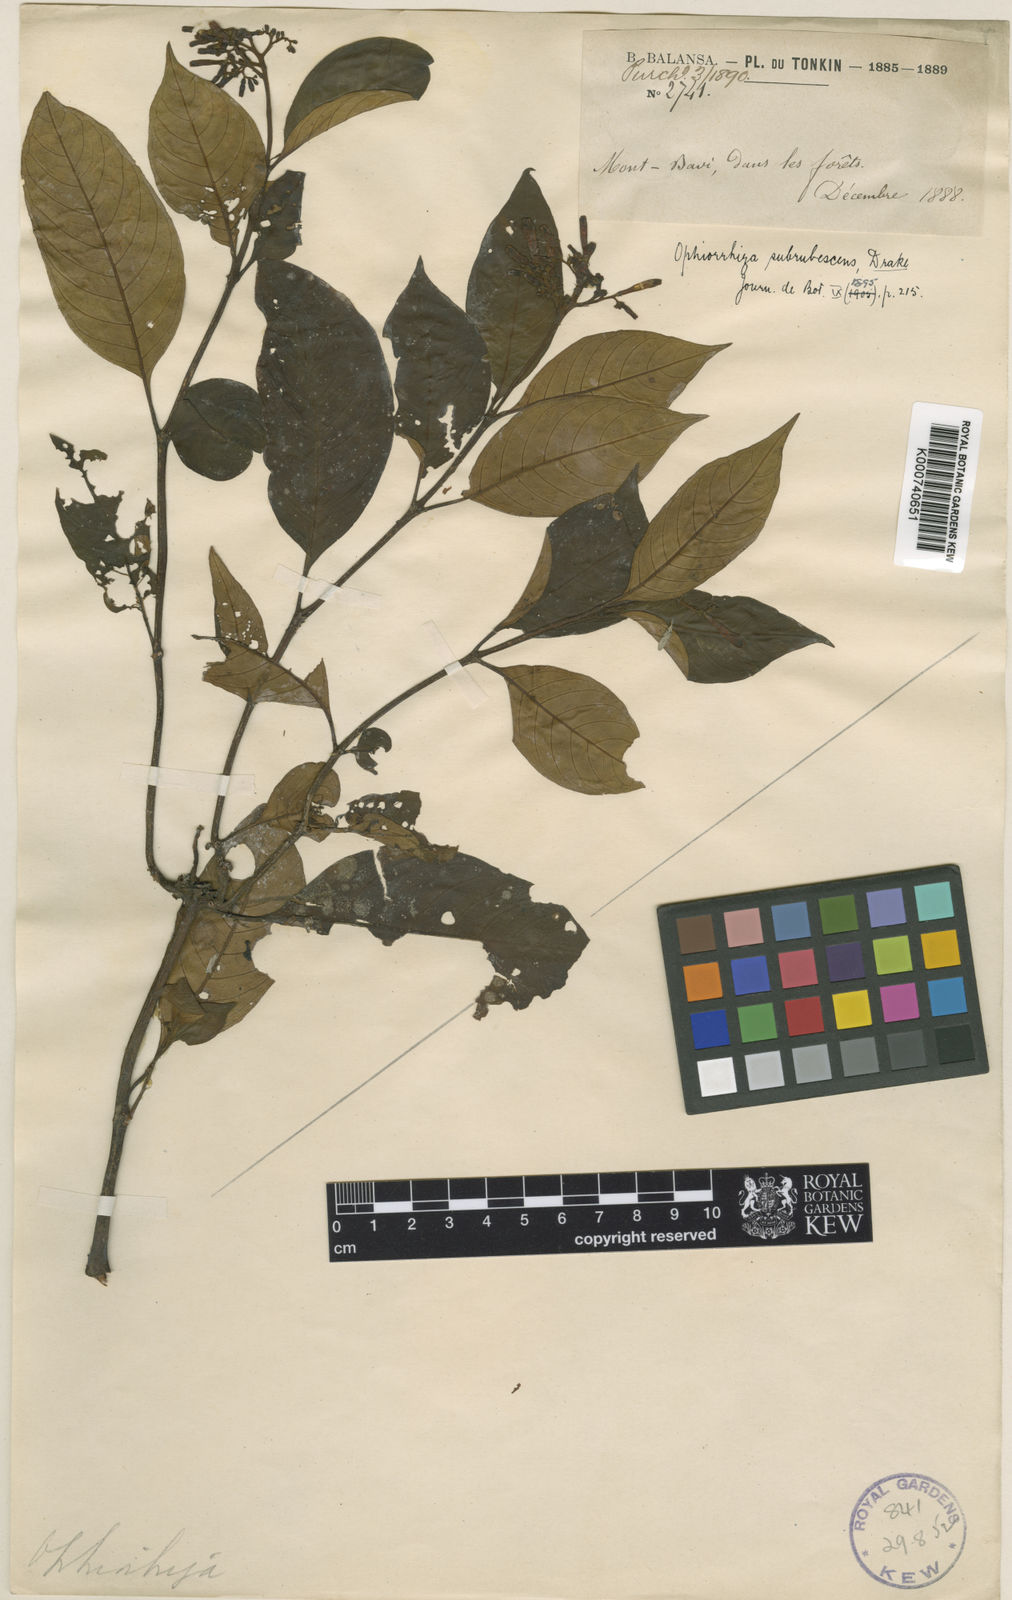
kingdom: Plantae
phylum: Tracheophyta
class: Magnoliopsida
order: Gentianales
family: Rubiaceae
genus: Ophiorrhiza
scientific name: Ophiorrhiza subrubescens
